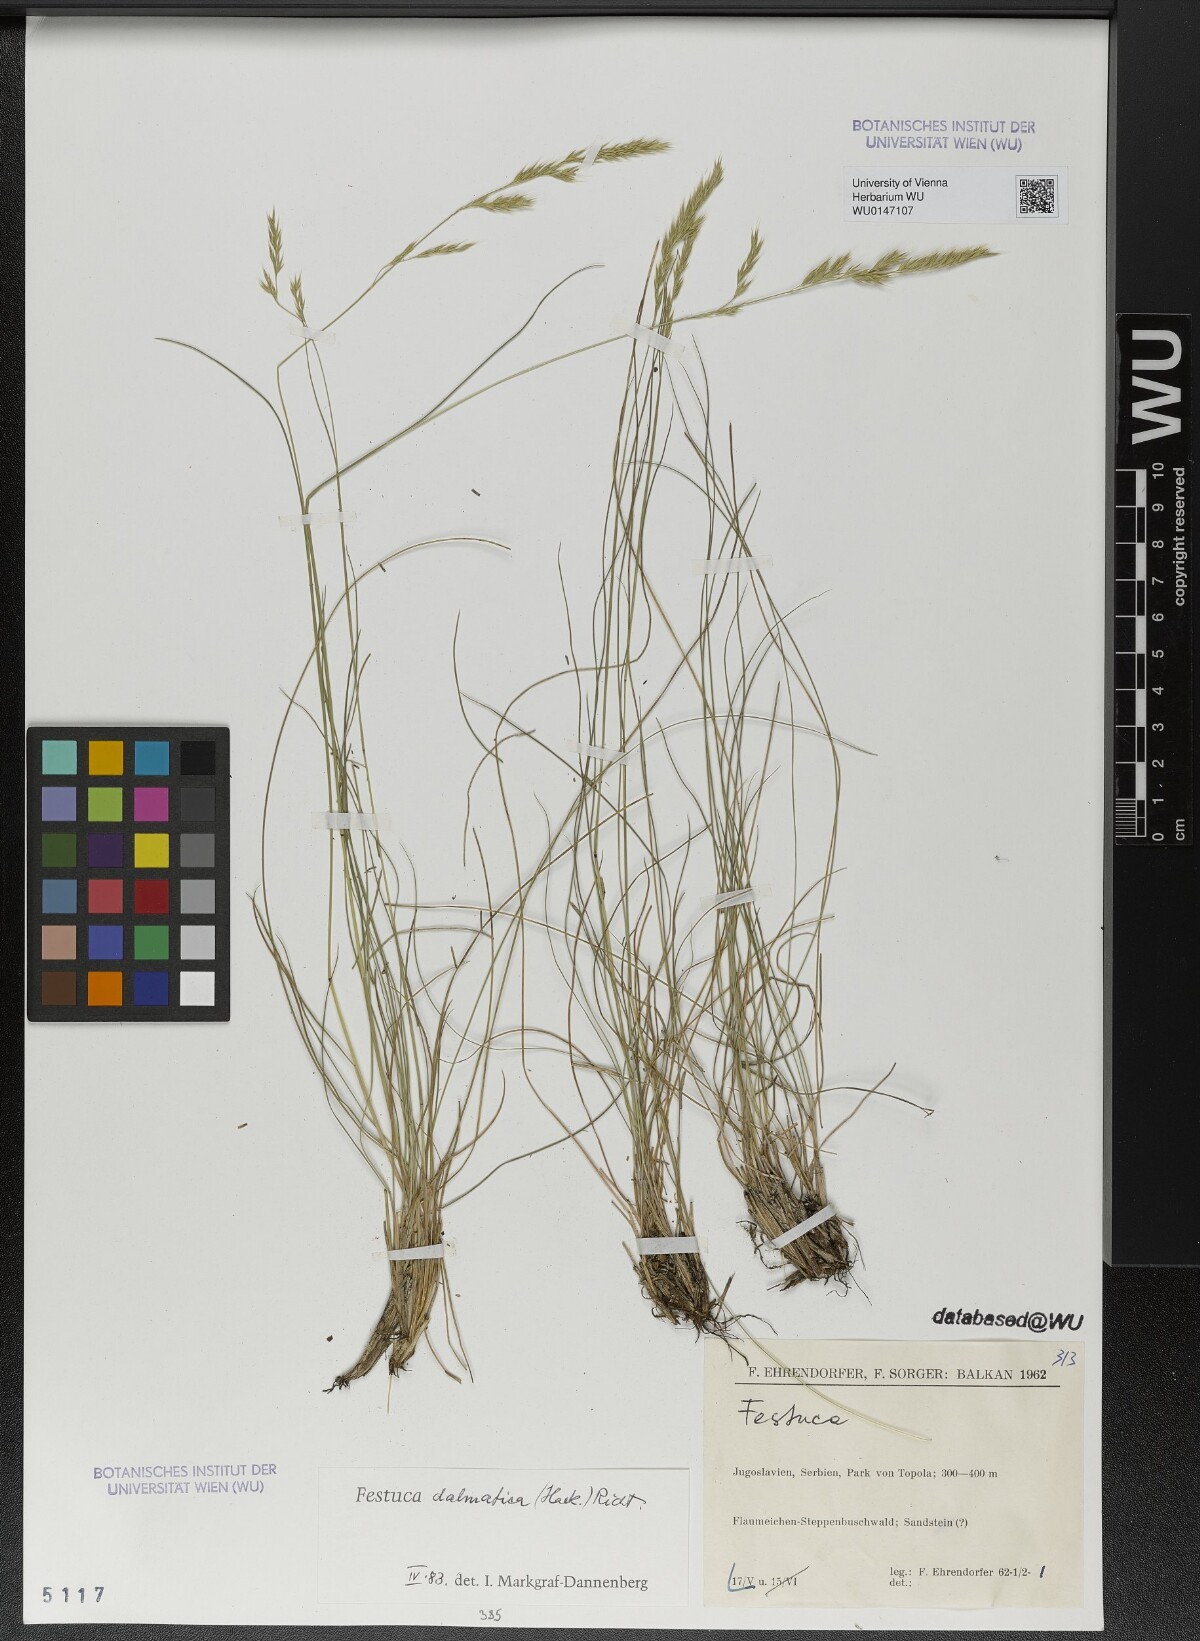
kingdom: Plantae
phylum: Tracheophyta
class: Liliopsida
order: Poales
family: Poaceae
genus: Festuca
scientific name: Festuca dalmatica
